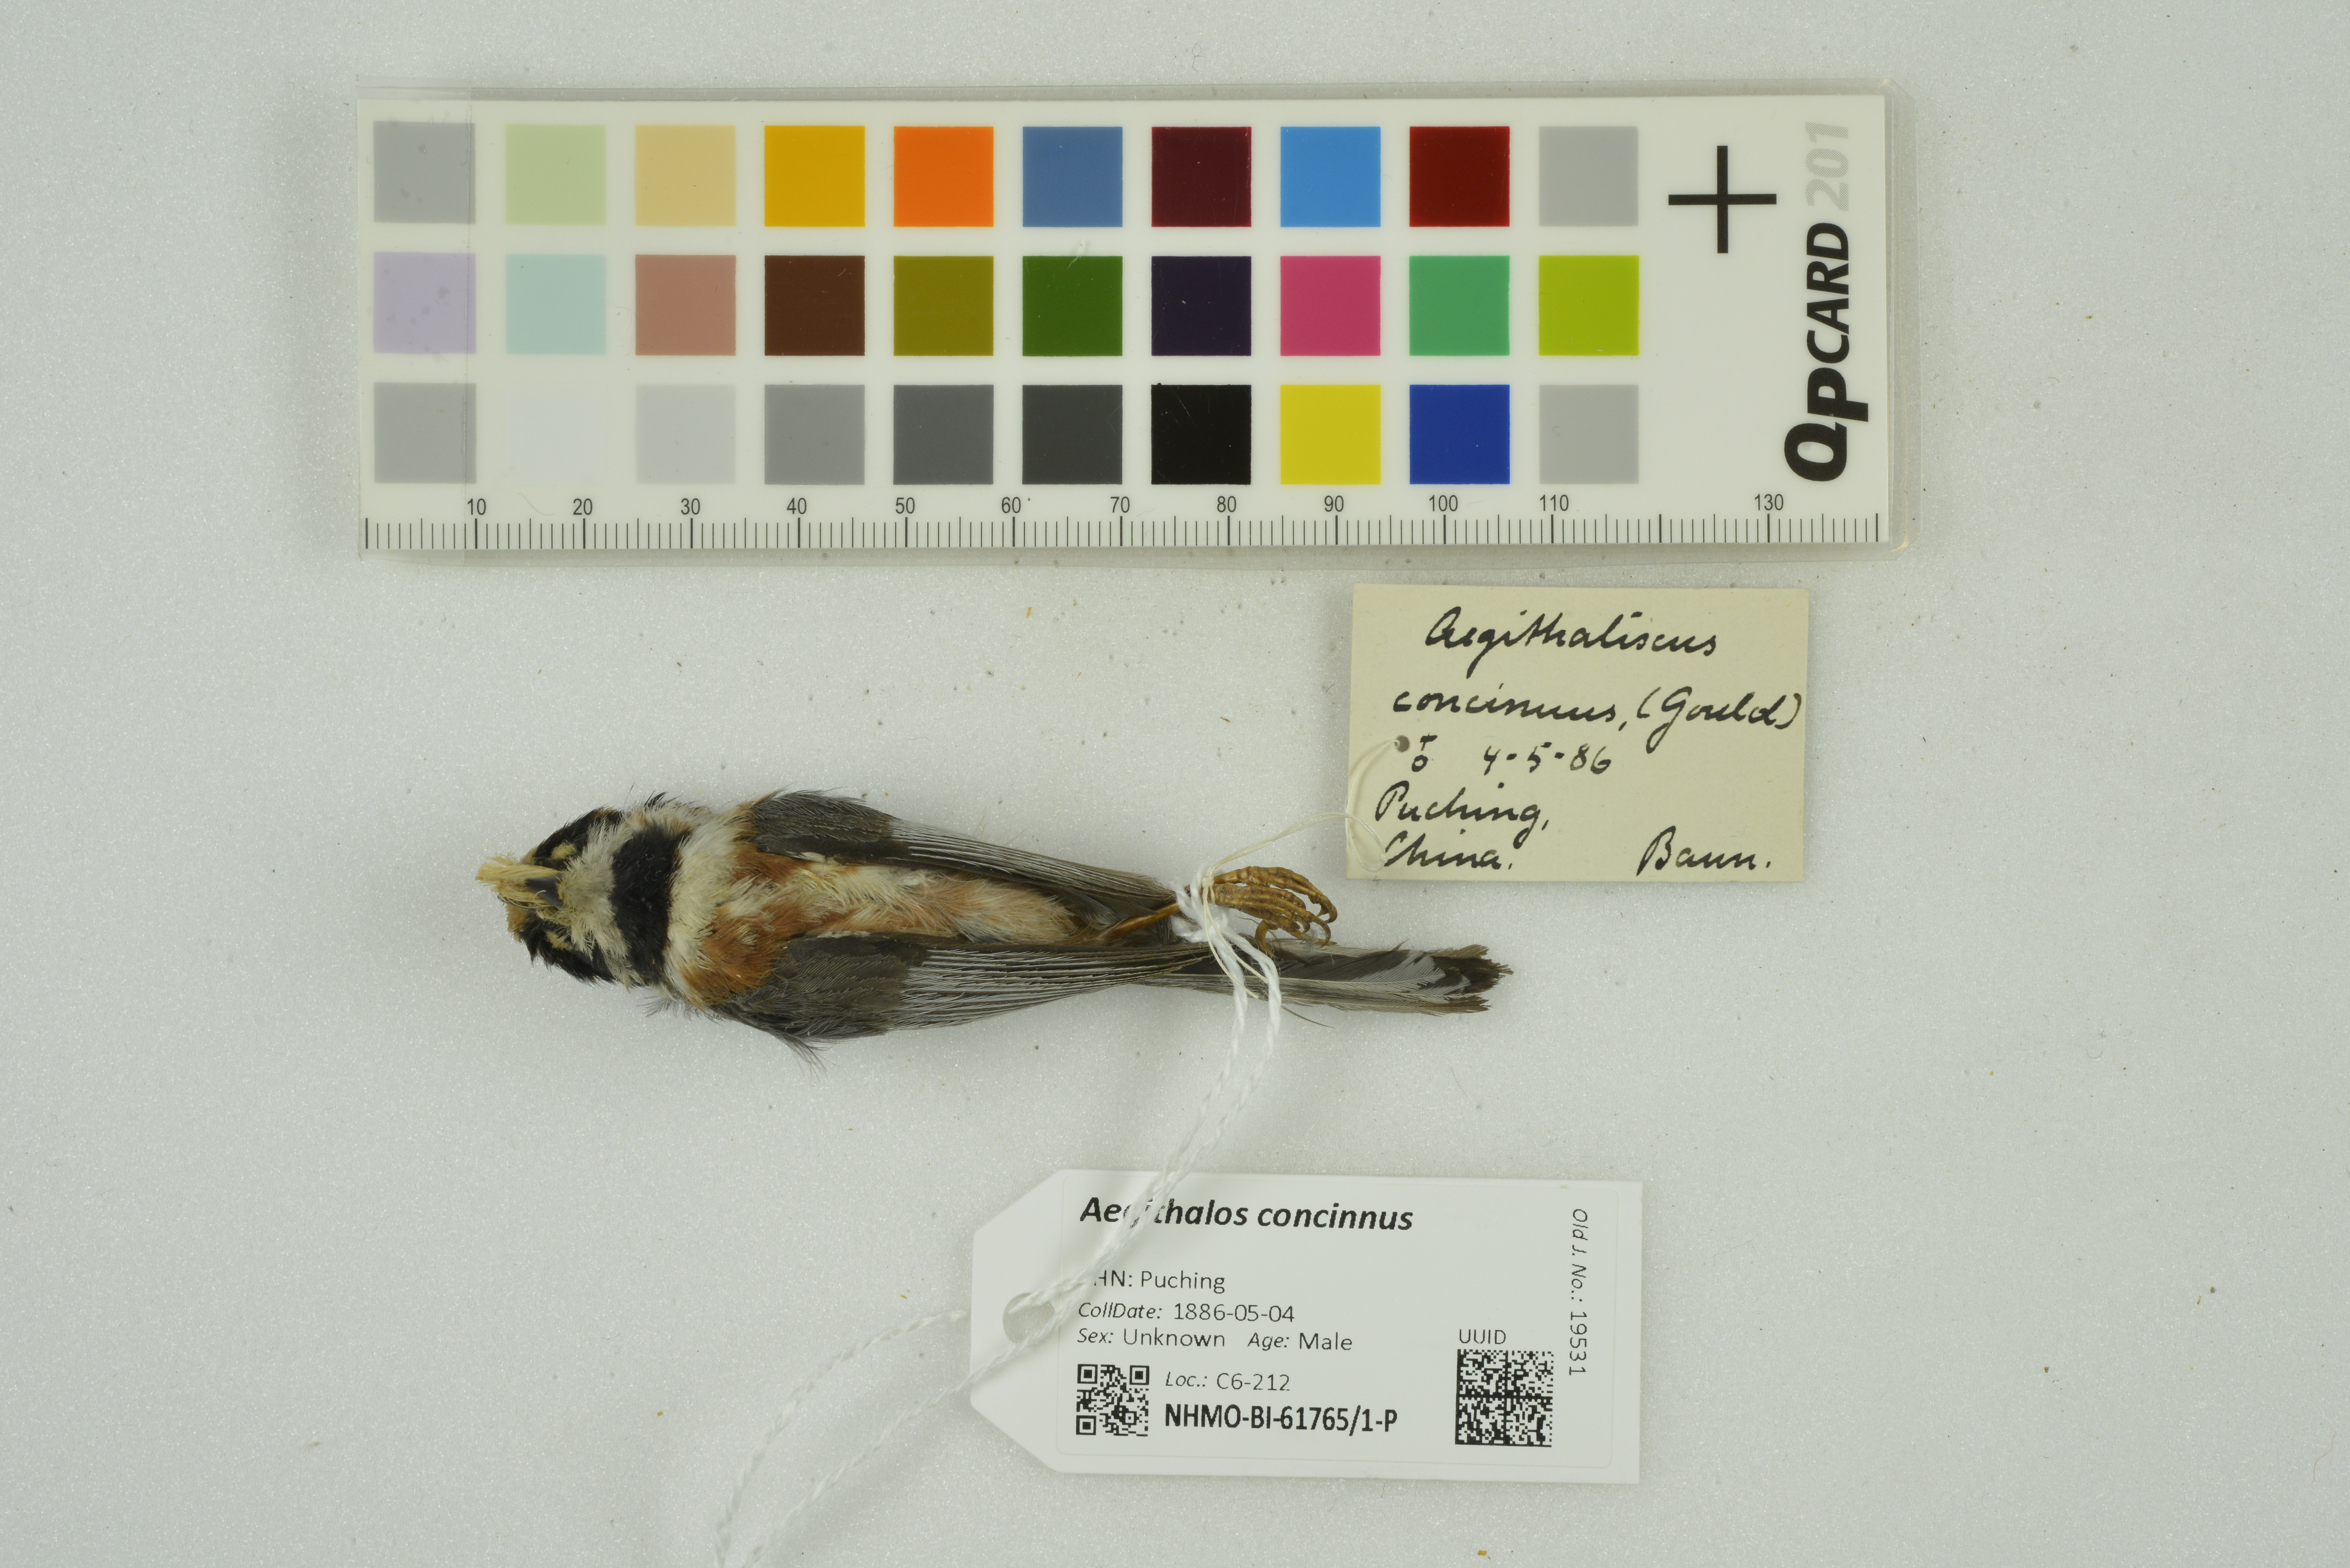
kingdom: Animalia
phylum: Chordata
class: Aves
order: Passeriformes
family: Aegithalidae
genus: Aegithalos
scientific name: Aegithalos concinnus
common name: Black-throated bushtit
